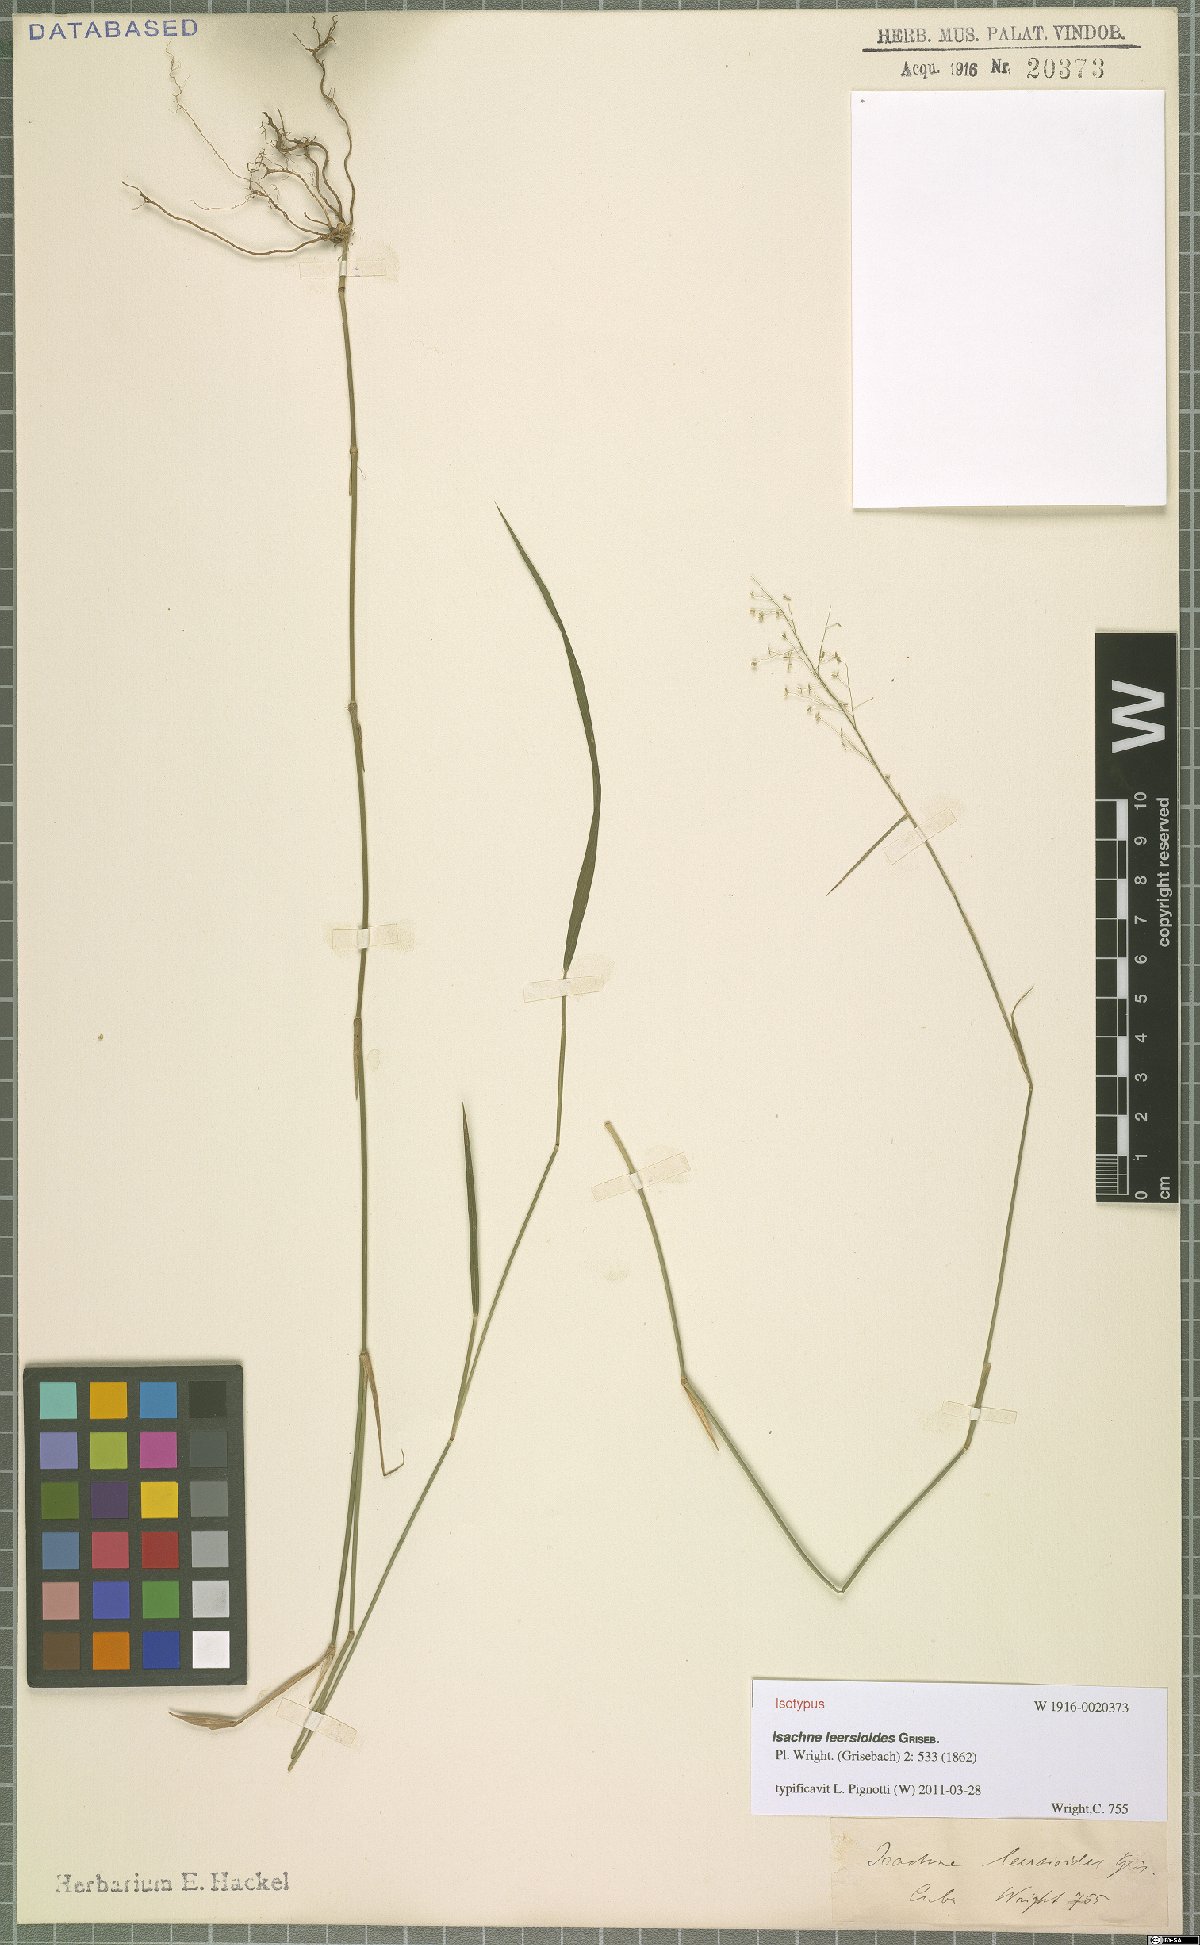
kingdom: Plantae
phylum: Tracheophyta
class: Liliopsida
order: Poales
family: Poaceae
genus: Isachne
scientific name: Isachne leersioides
